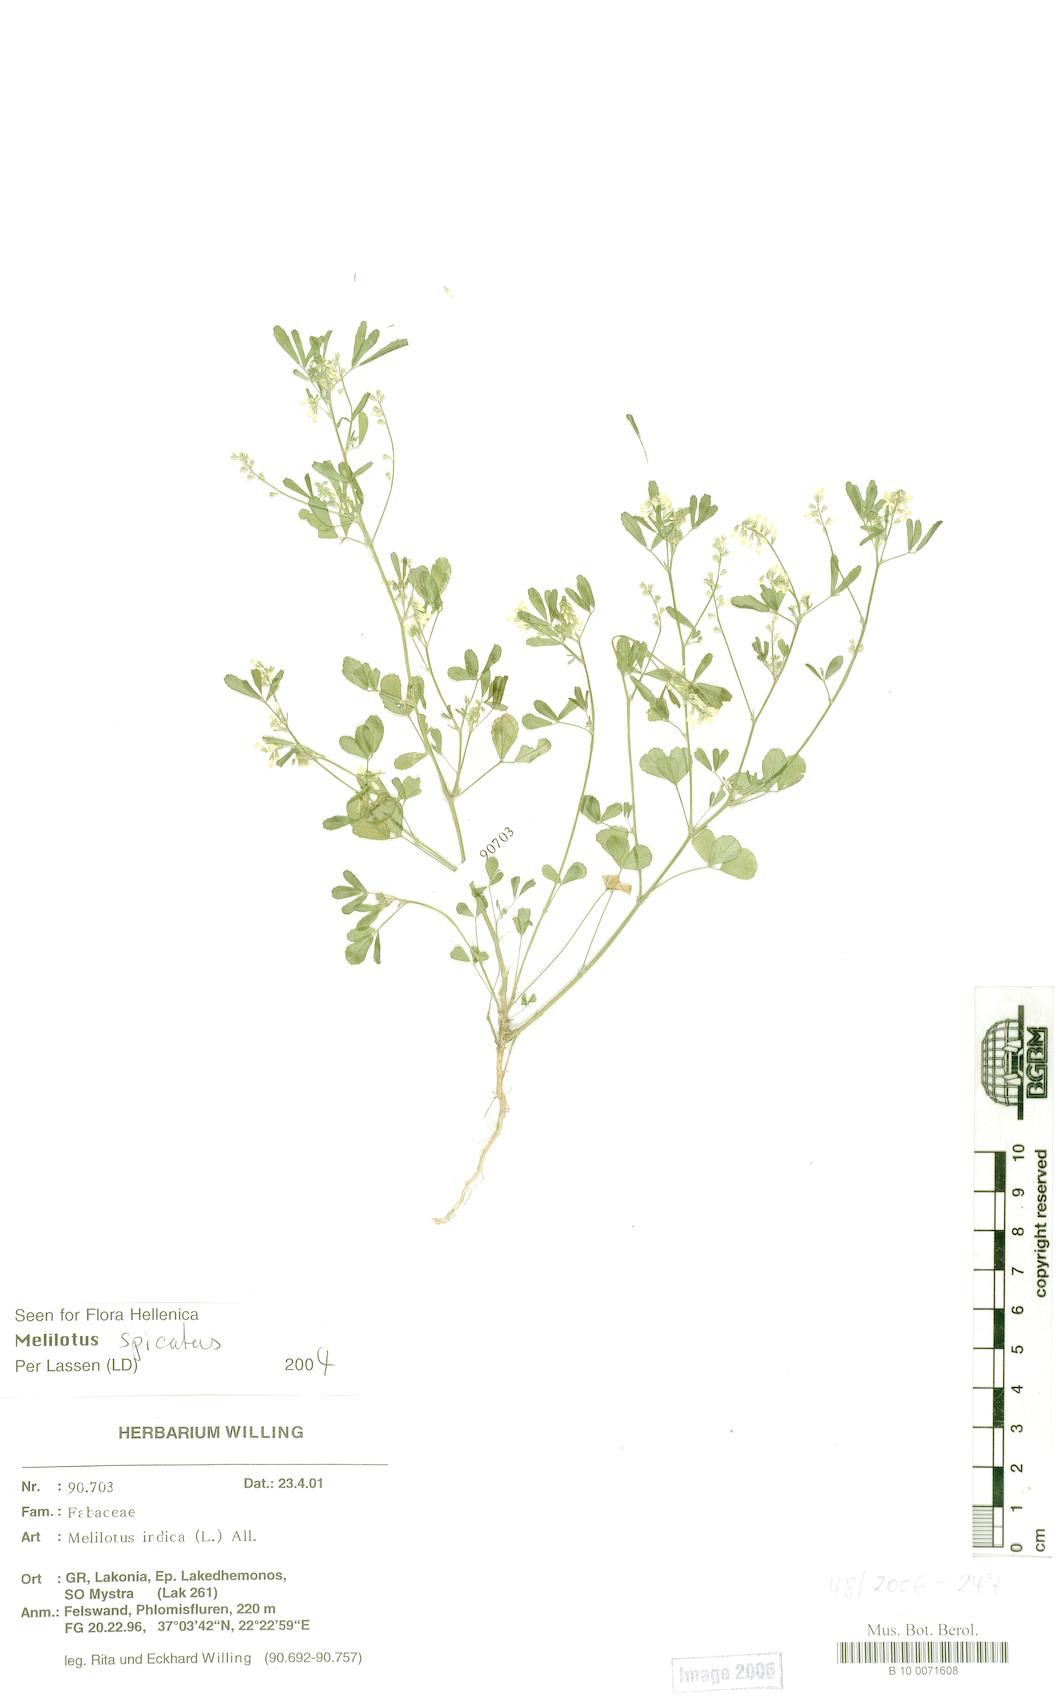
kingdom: Plantae
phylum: Tracheophyta
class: Magnoliopsida
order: Fabales
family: Fabaceae
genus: Melilotus
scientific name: Melilotus indicus
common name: Small melilot
